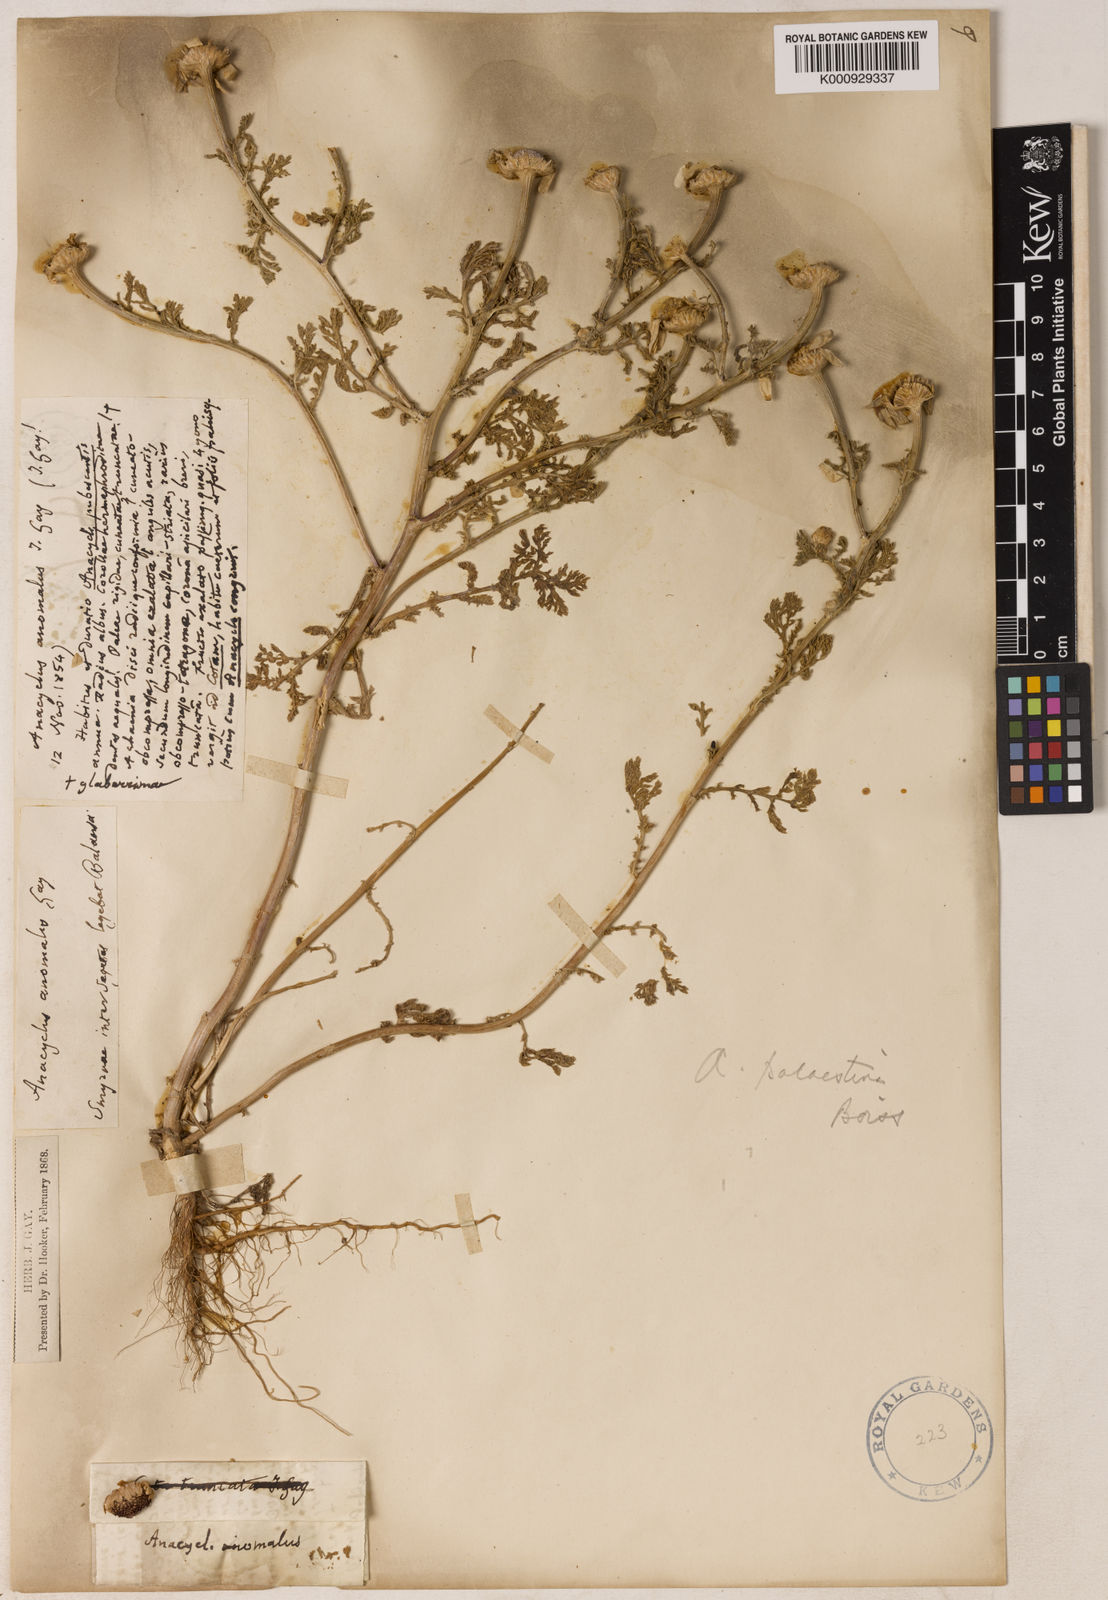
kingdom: Plantae
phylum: Tracheophyta
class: Magnoliopsida
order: Asterales
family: Asteraceae
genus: Cota
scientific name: Cota palaestina
